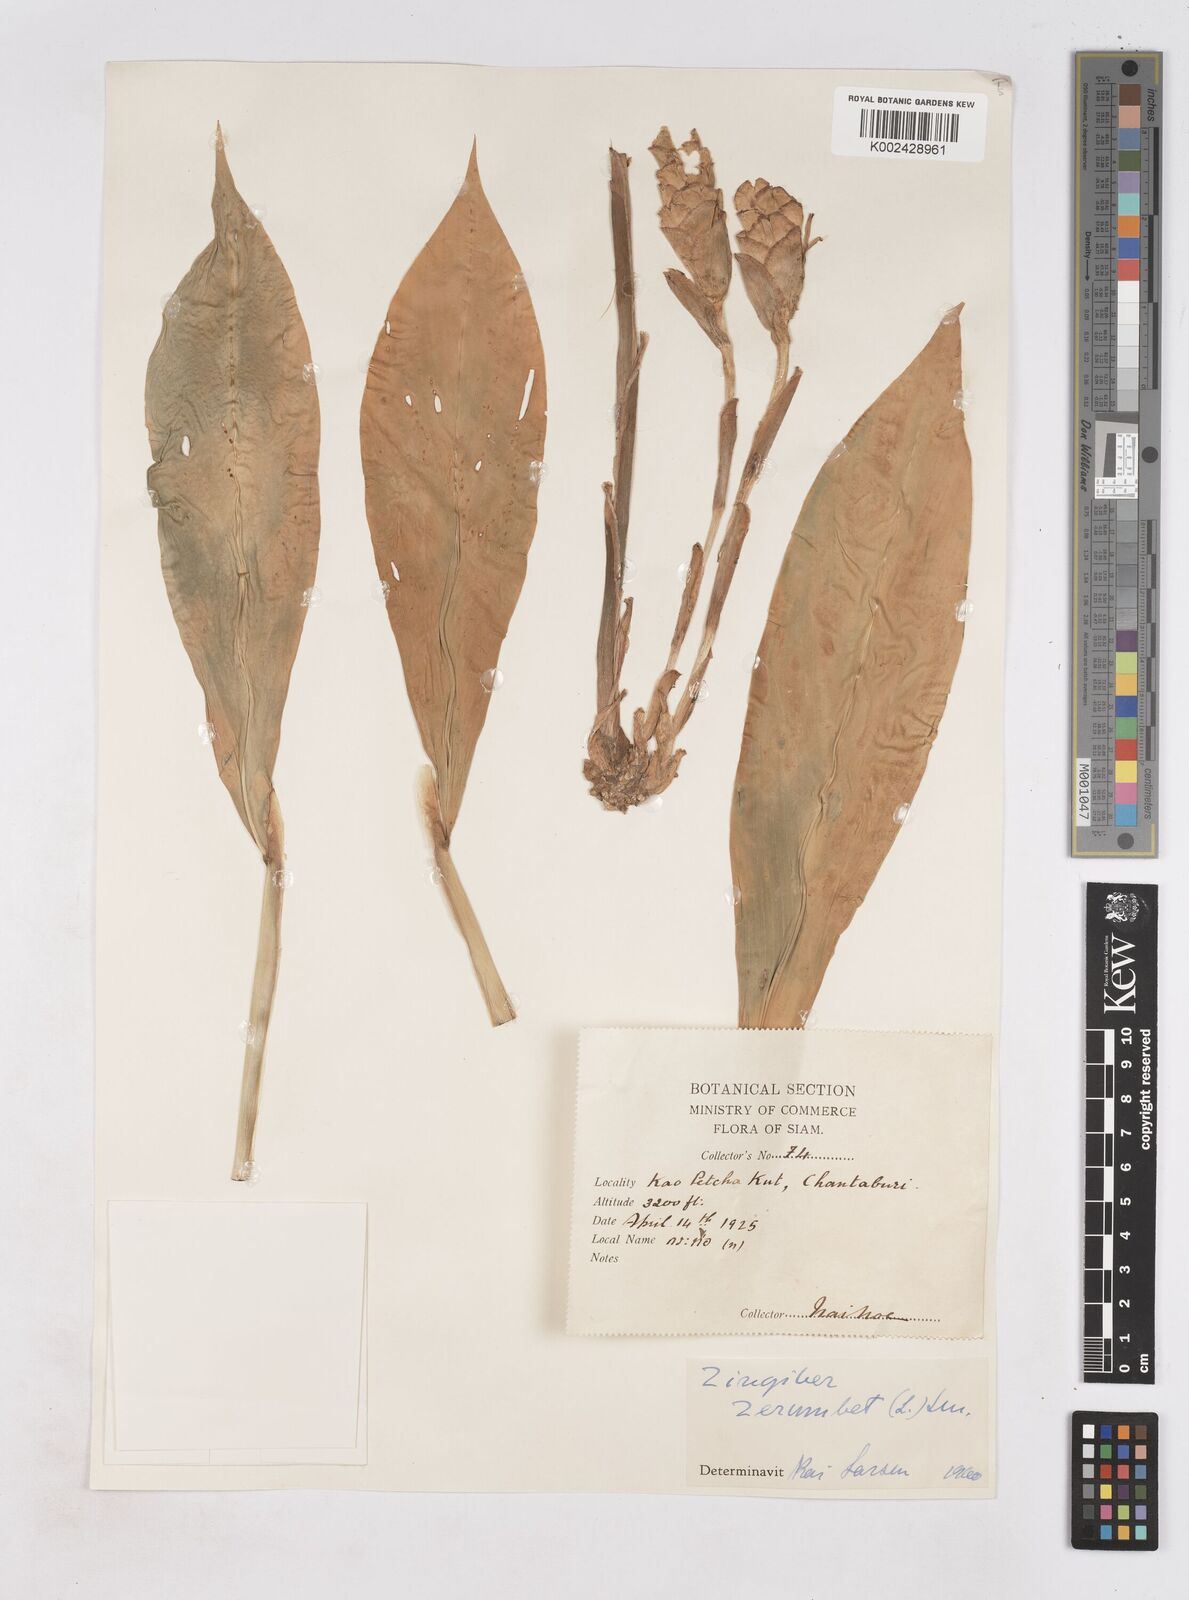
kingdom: Plantae
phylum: Tracheophyta
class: Liliopsida
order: Zingiberales
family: Zingiberaceae
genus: Zingiber
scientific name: Zingiber zerumbet
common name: Bitter ginger
